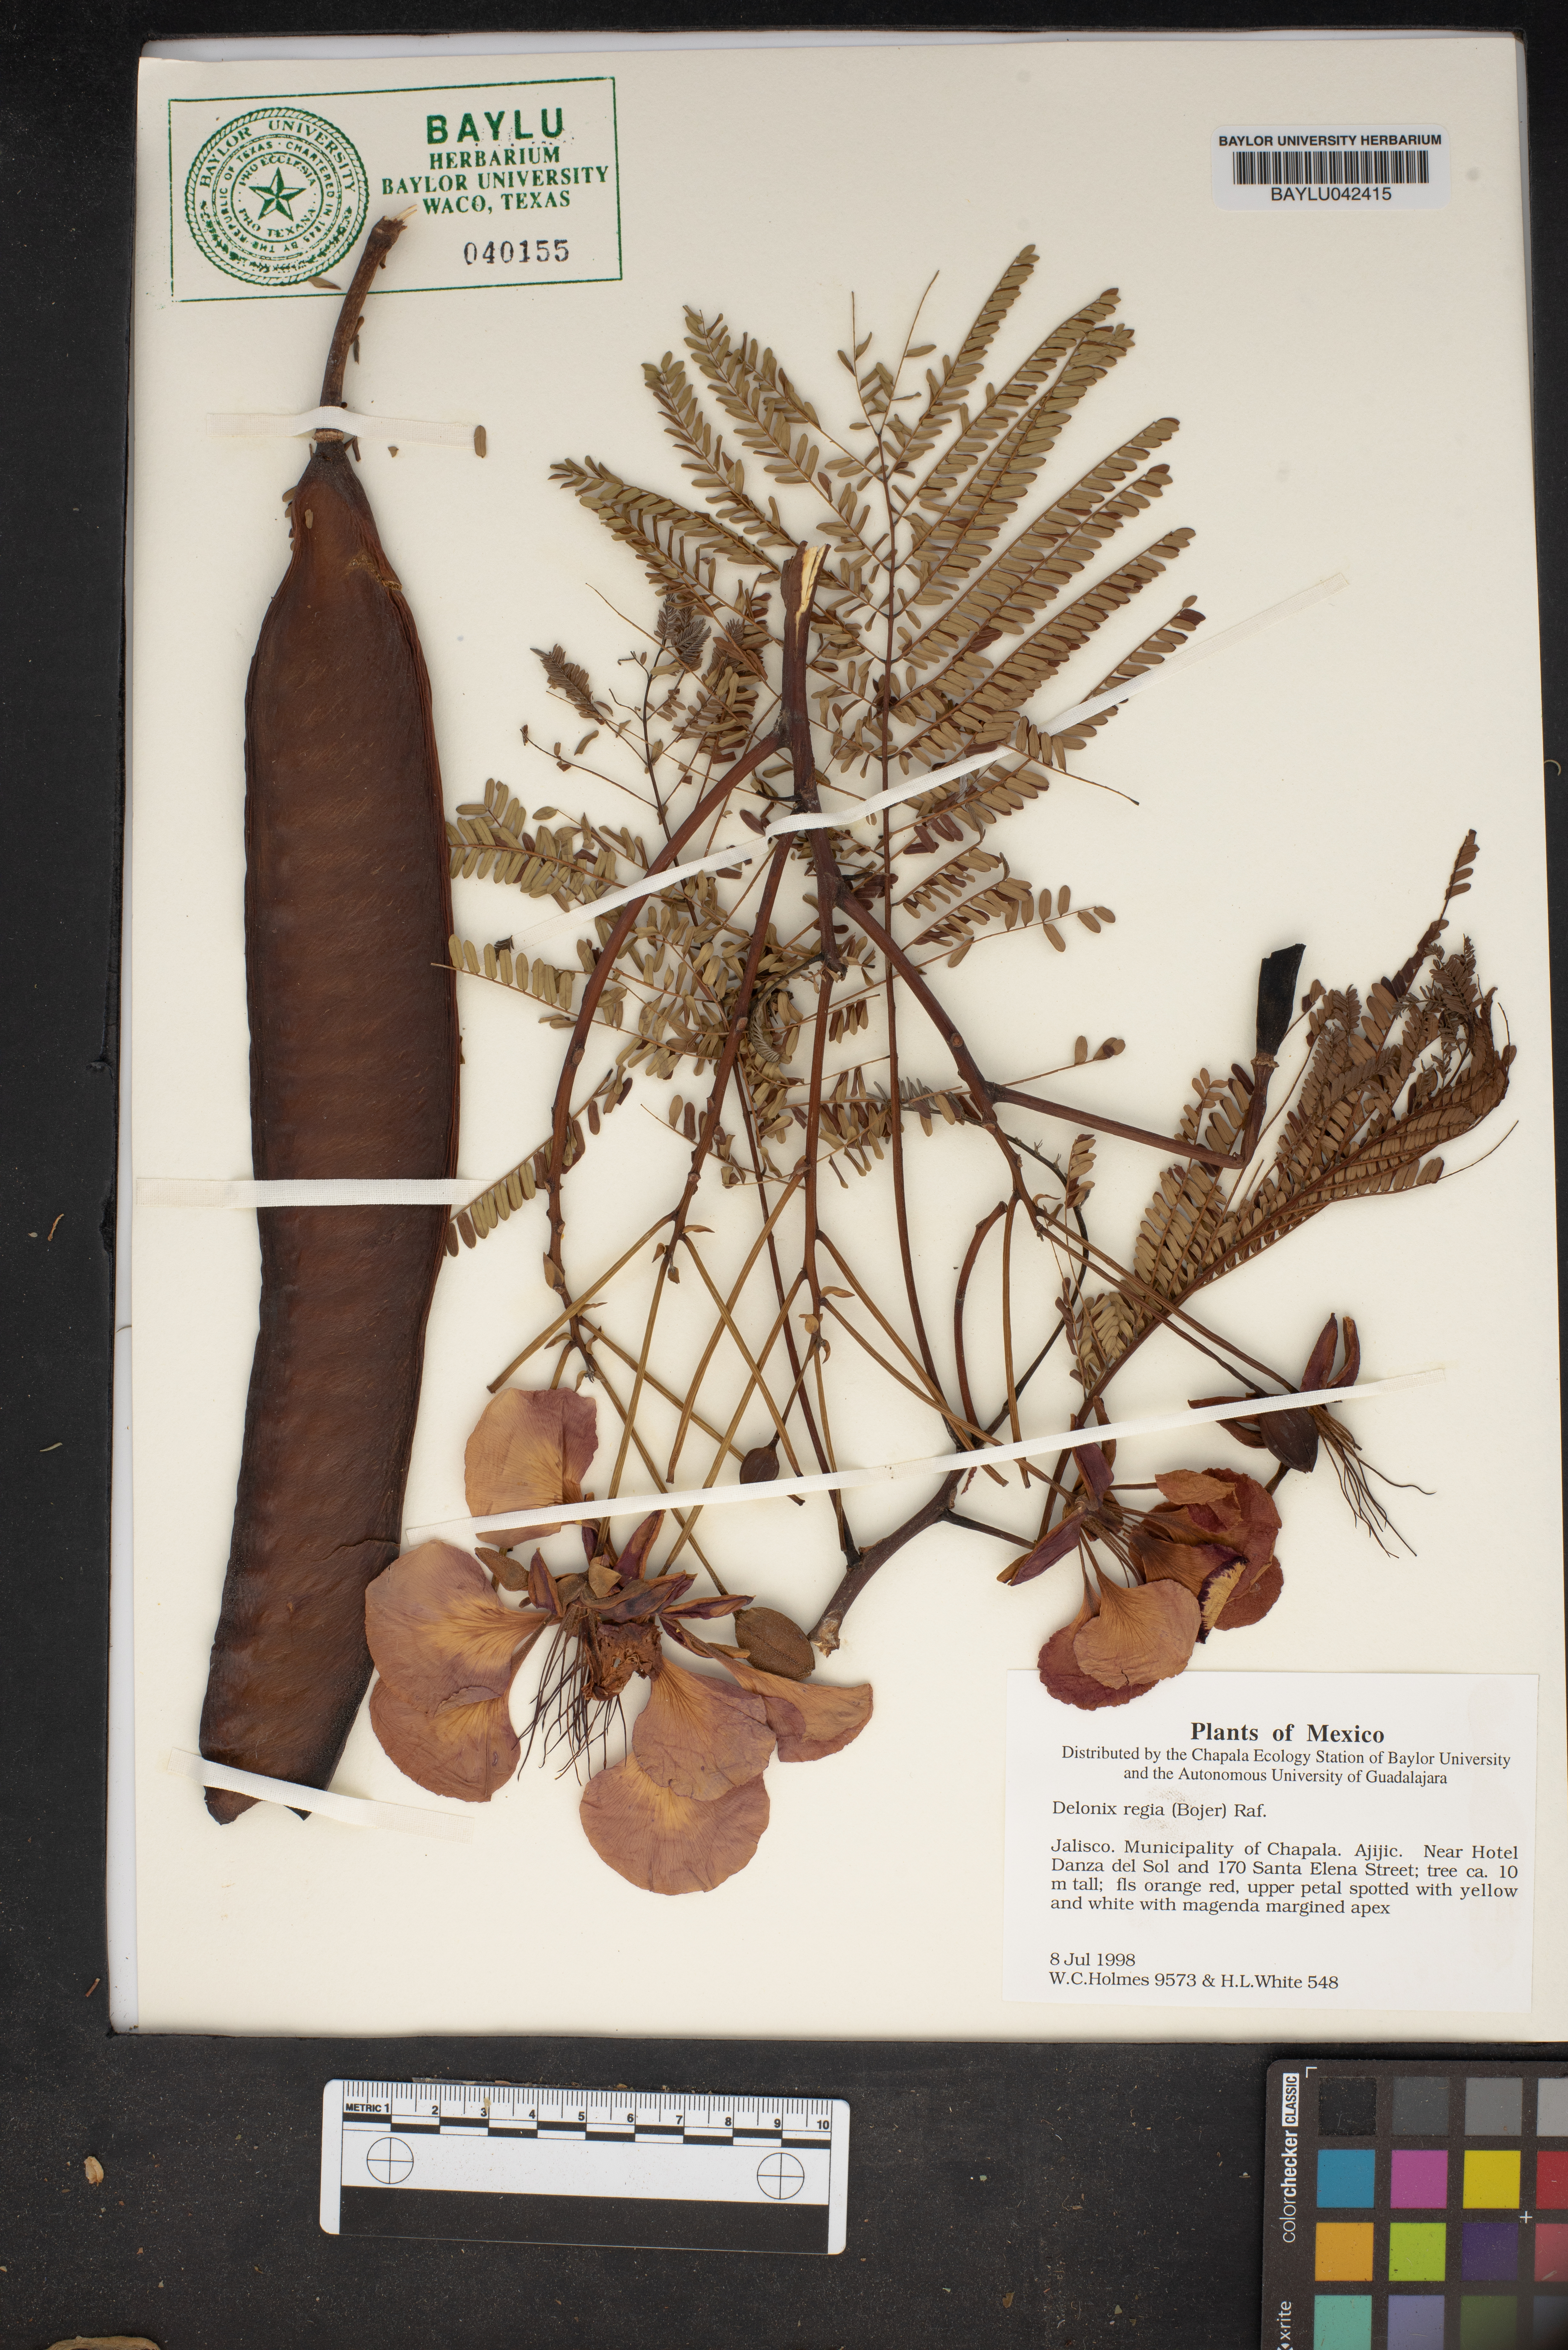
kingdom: Plantae
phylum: Tracheophyta
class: Magnoliopsida
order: Fabales
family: Fabaceae
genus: Delonix
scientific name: Delonix regia
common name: Royal poinciana
